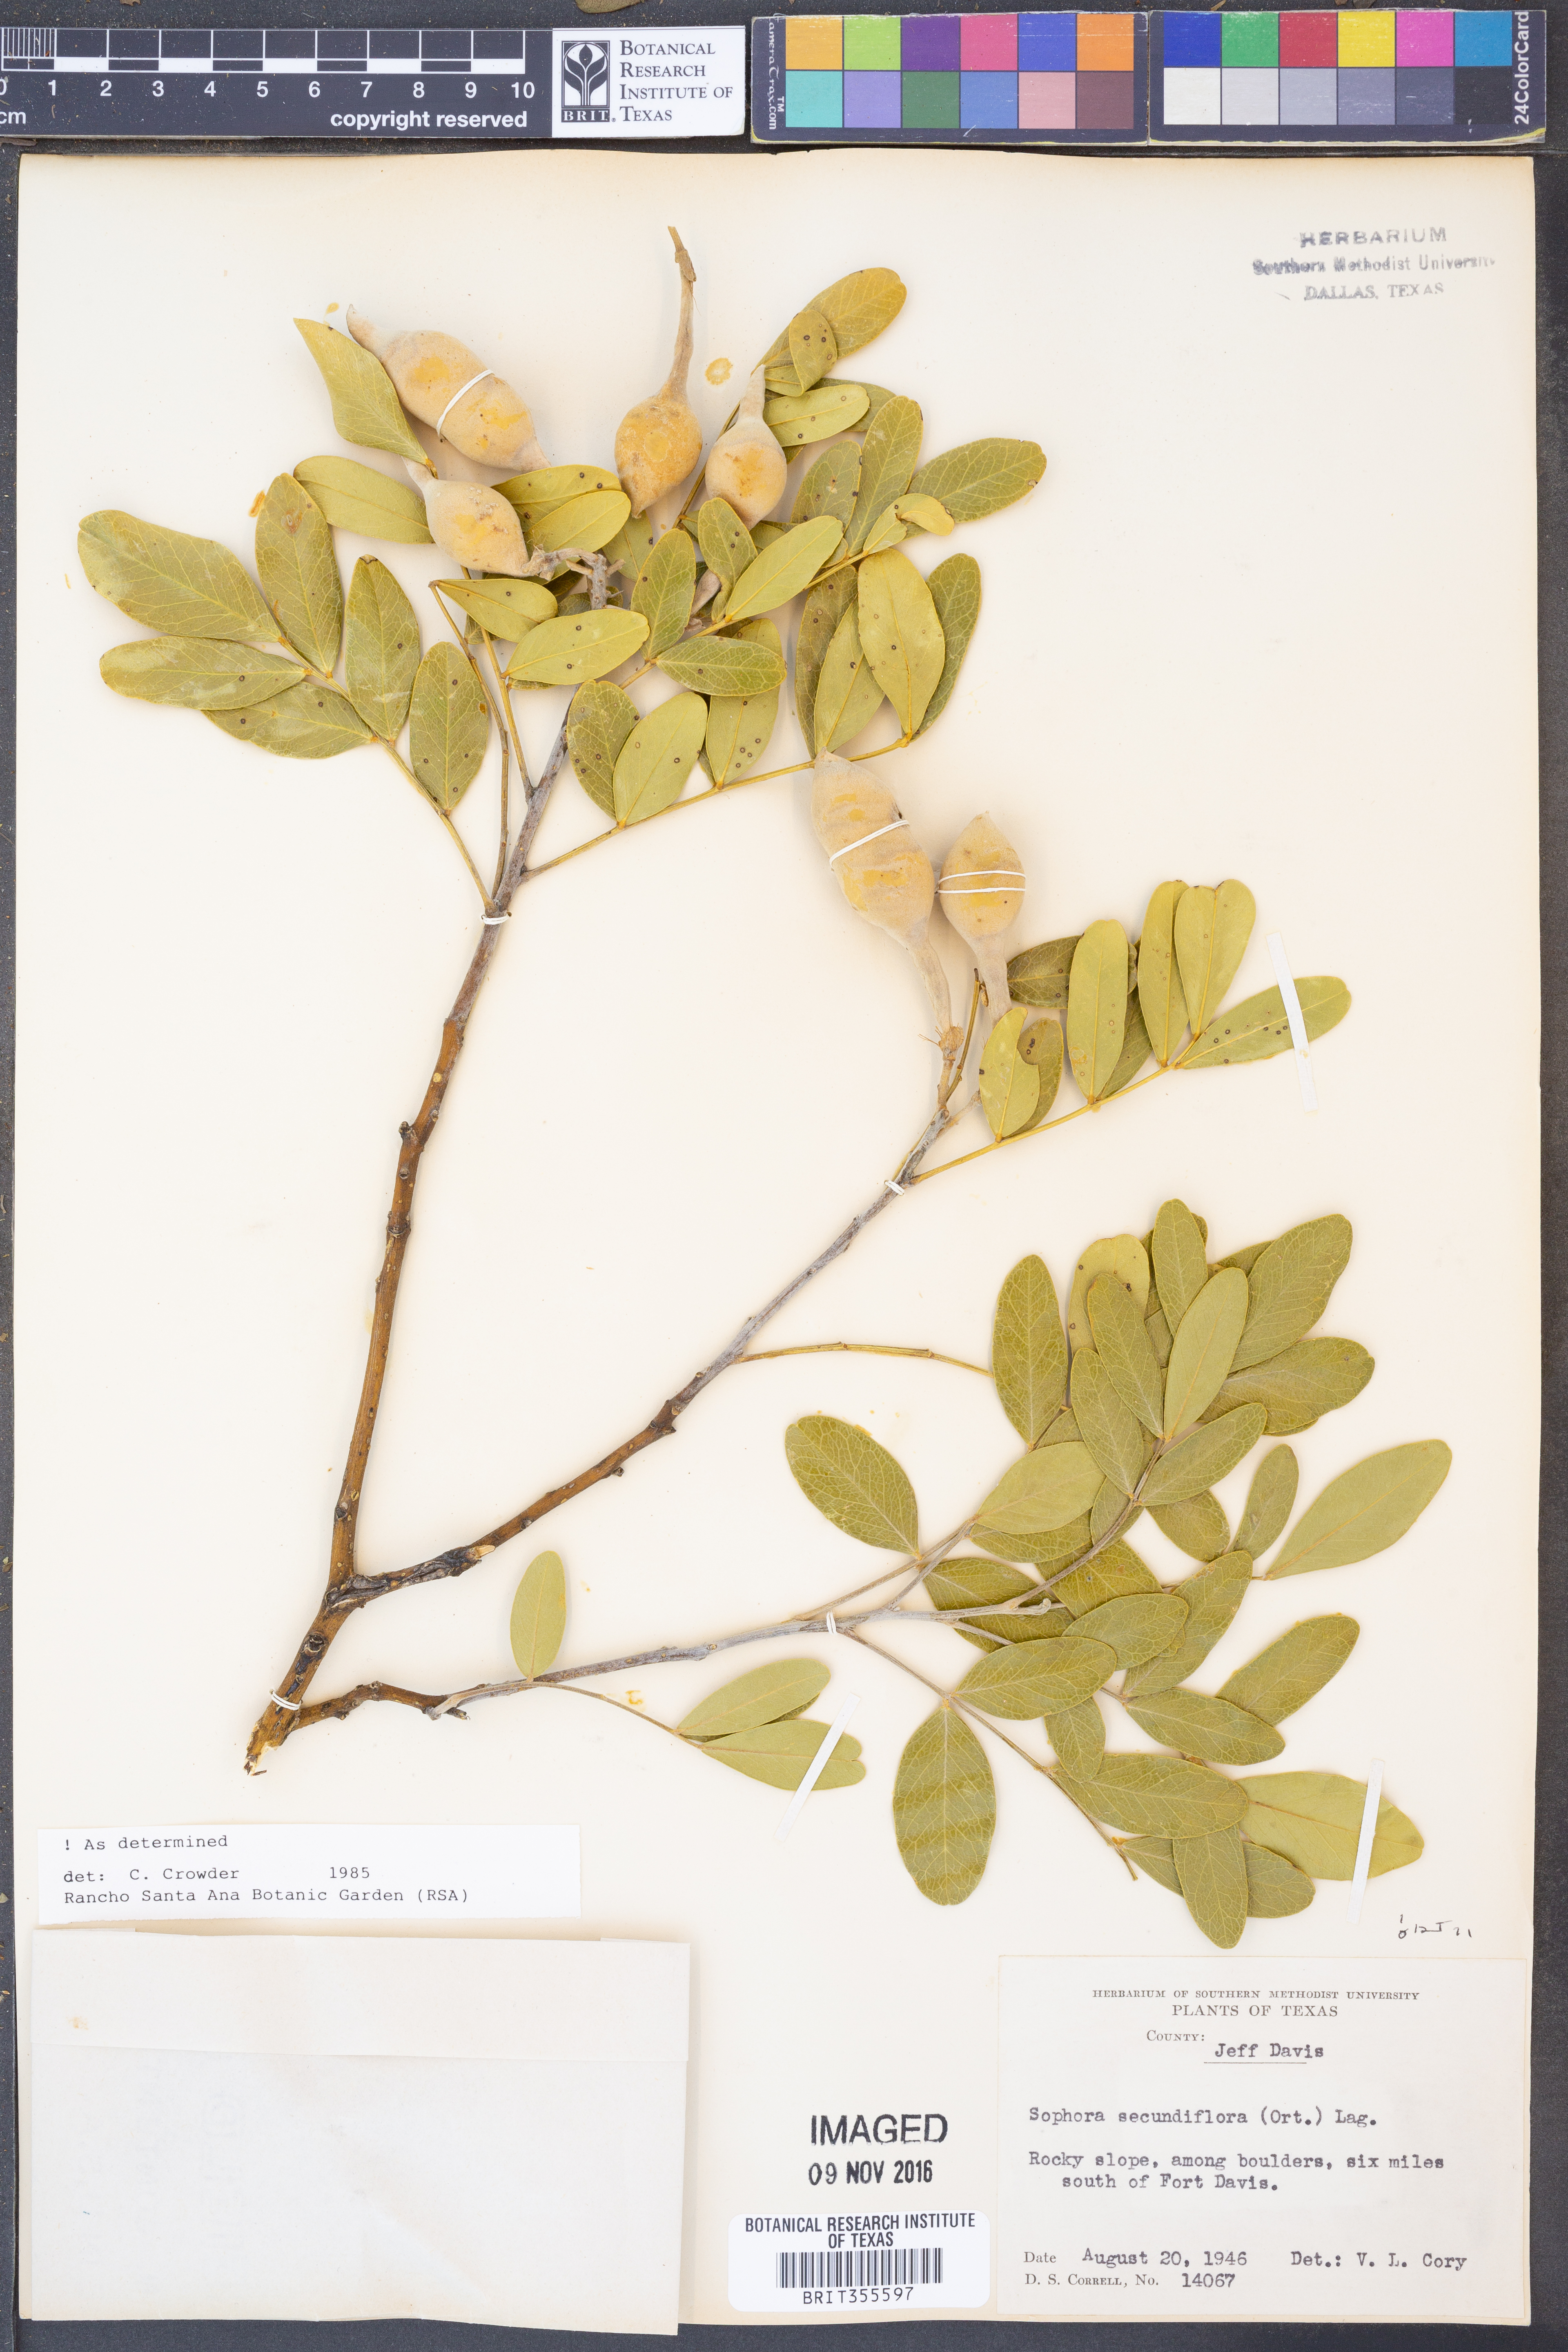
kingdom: Plantae
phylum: Tracheophyta
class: Magnoliopsida
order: Fabales
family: Fabaceae
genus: Dermatophyllum
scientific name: Dermatophyllum secundiflorum
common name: Texas-mountain-laurel
